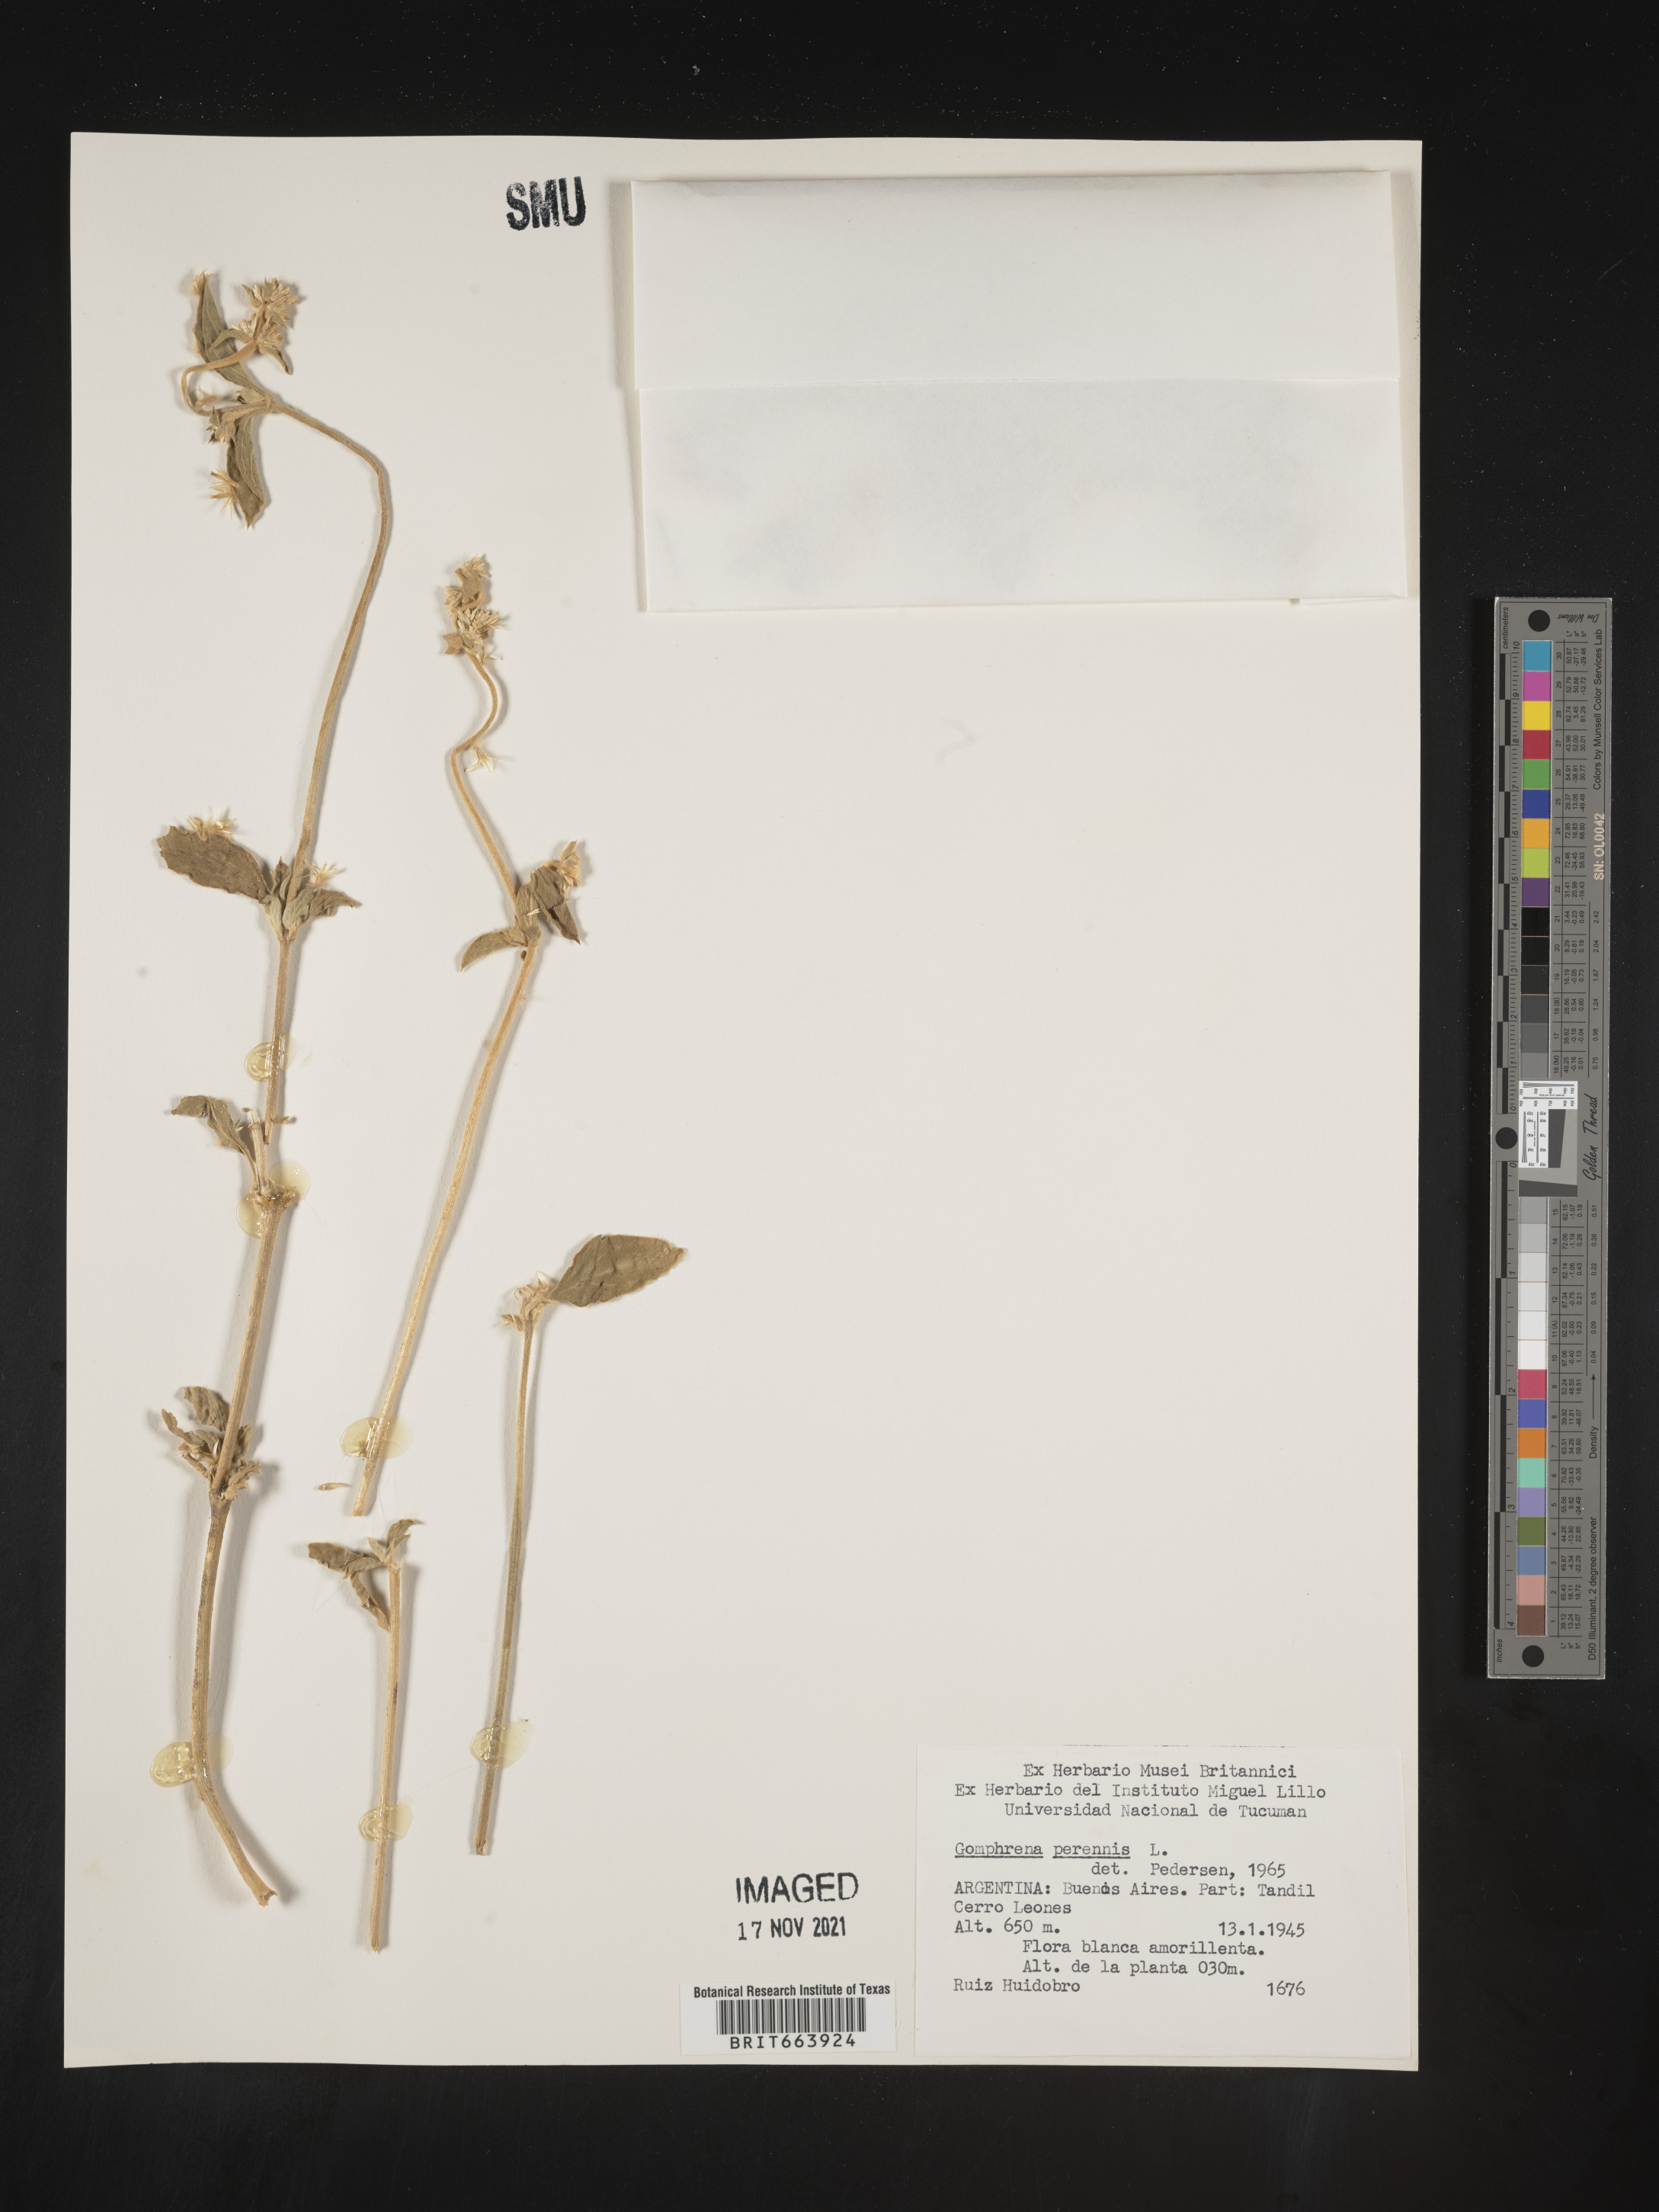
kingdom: Plantae
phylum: Tracheophyta
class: Magnoliopsida
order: Caryophyllales
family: Amaranthaceae
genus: Gomphrena
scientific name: Gomphrena
